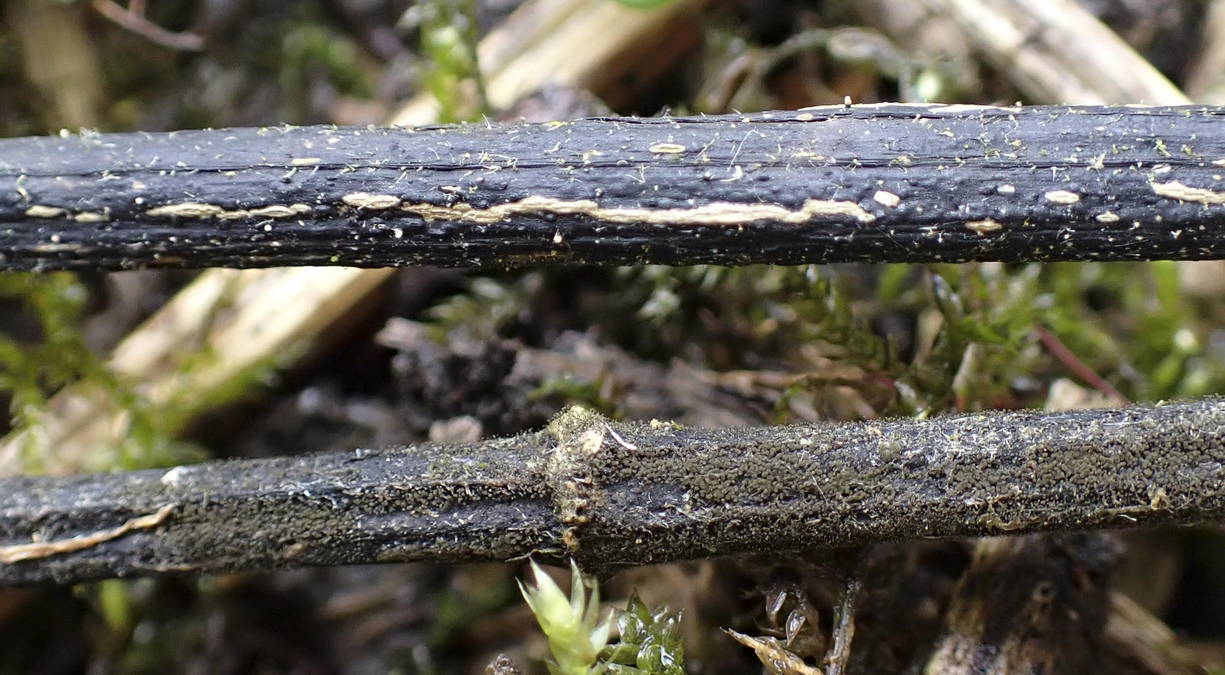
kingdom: Fungi
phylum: Ascomycota
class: Sordariomycetes
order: Diaporthales
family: Diaporthaceae
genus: Diaporthopsis
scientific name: Diaporthopsis urticae
